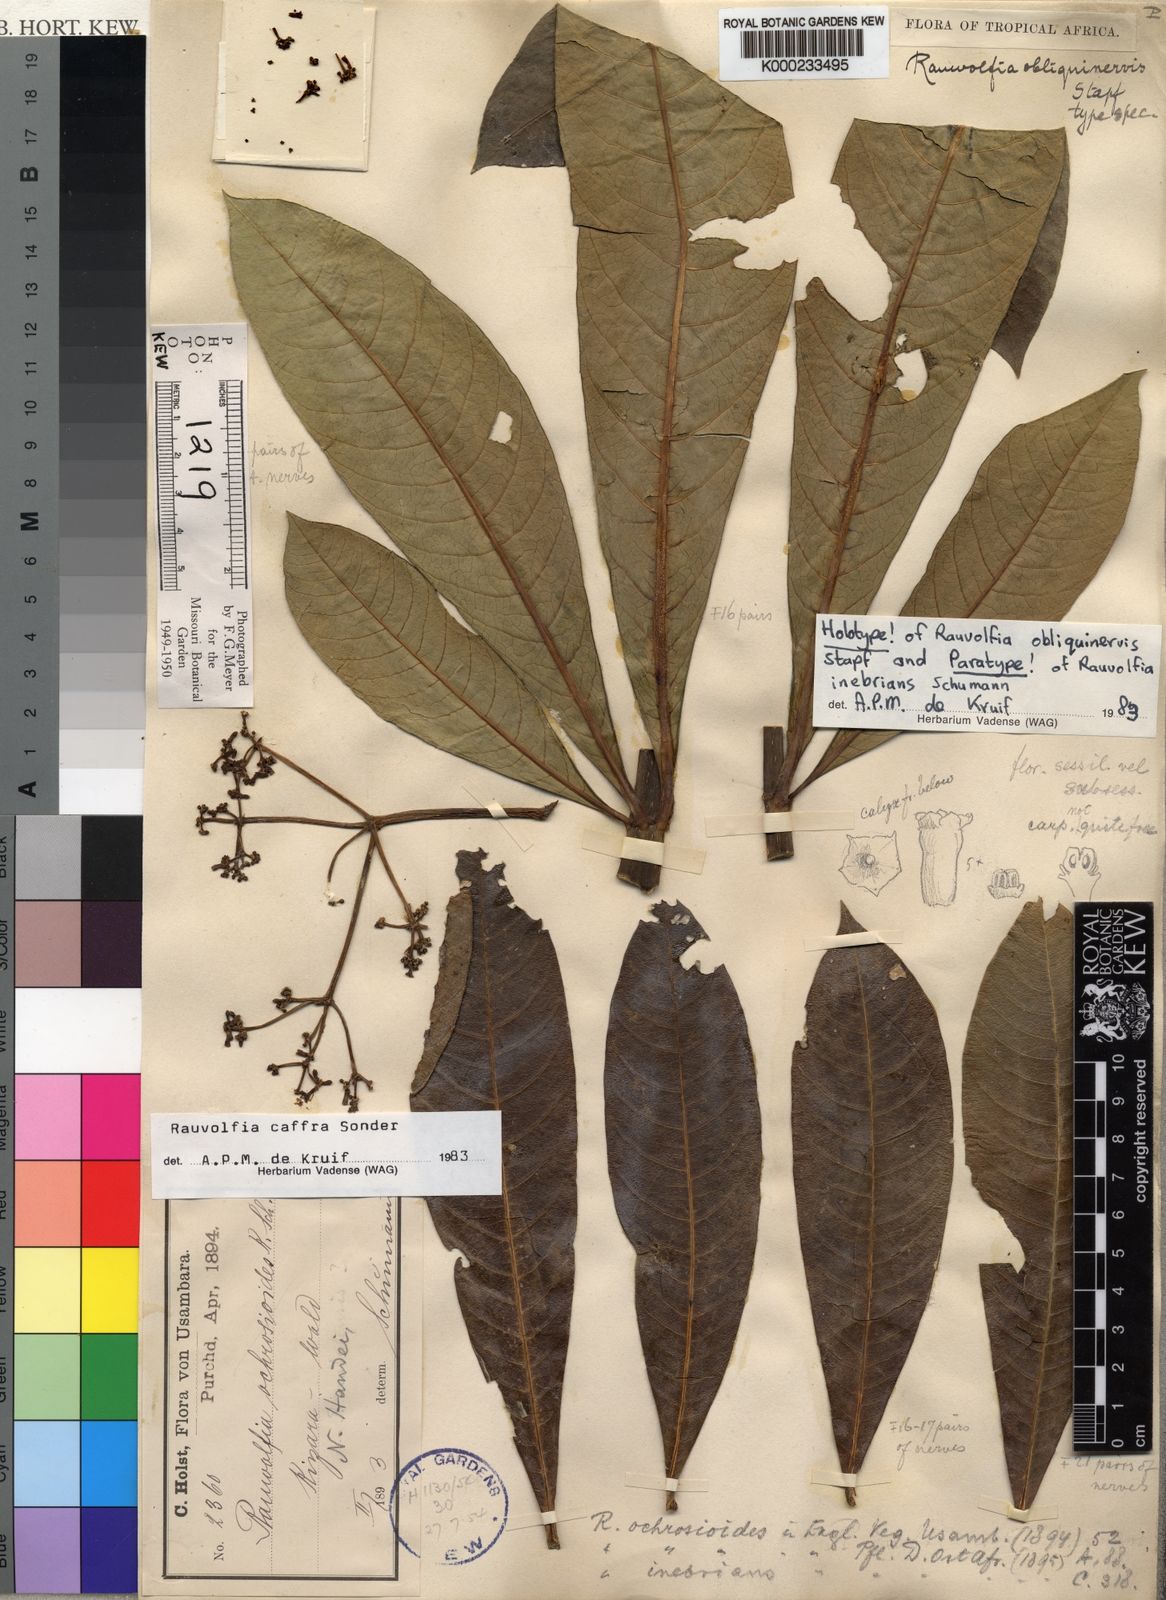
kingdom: Plantae
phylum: Tracheophyta
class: Magnoliopsida
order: Gentianales
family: Apocynaceae
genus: Rauvolfia
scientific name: Rauvolfia caffra
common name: Quininetree
